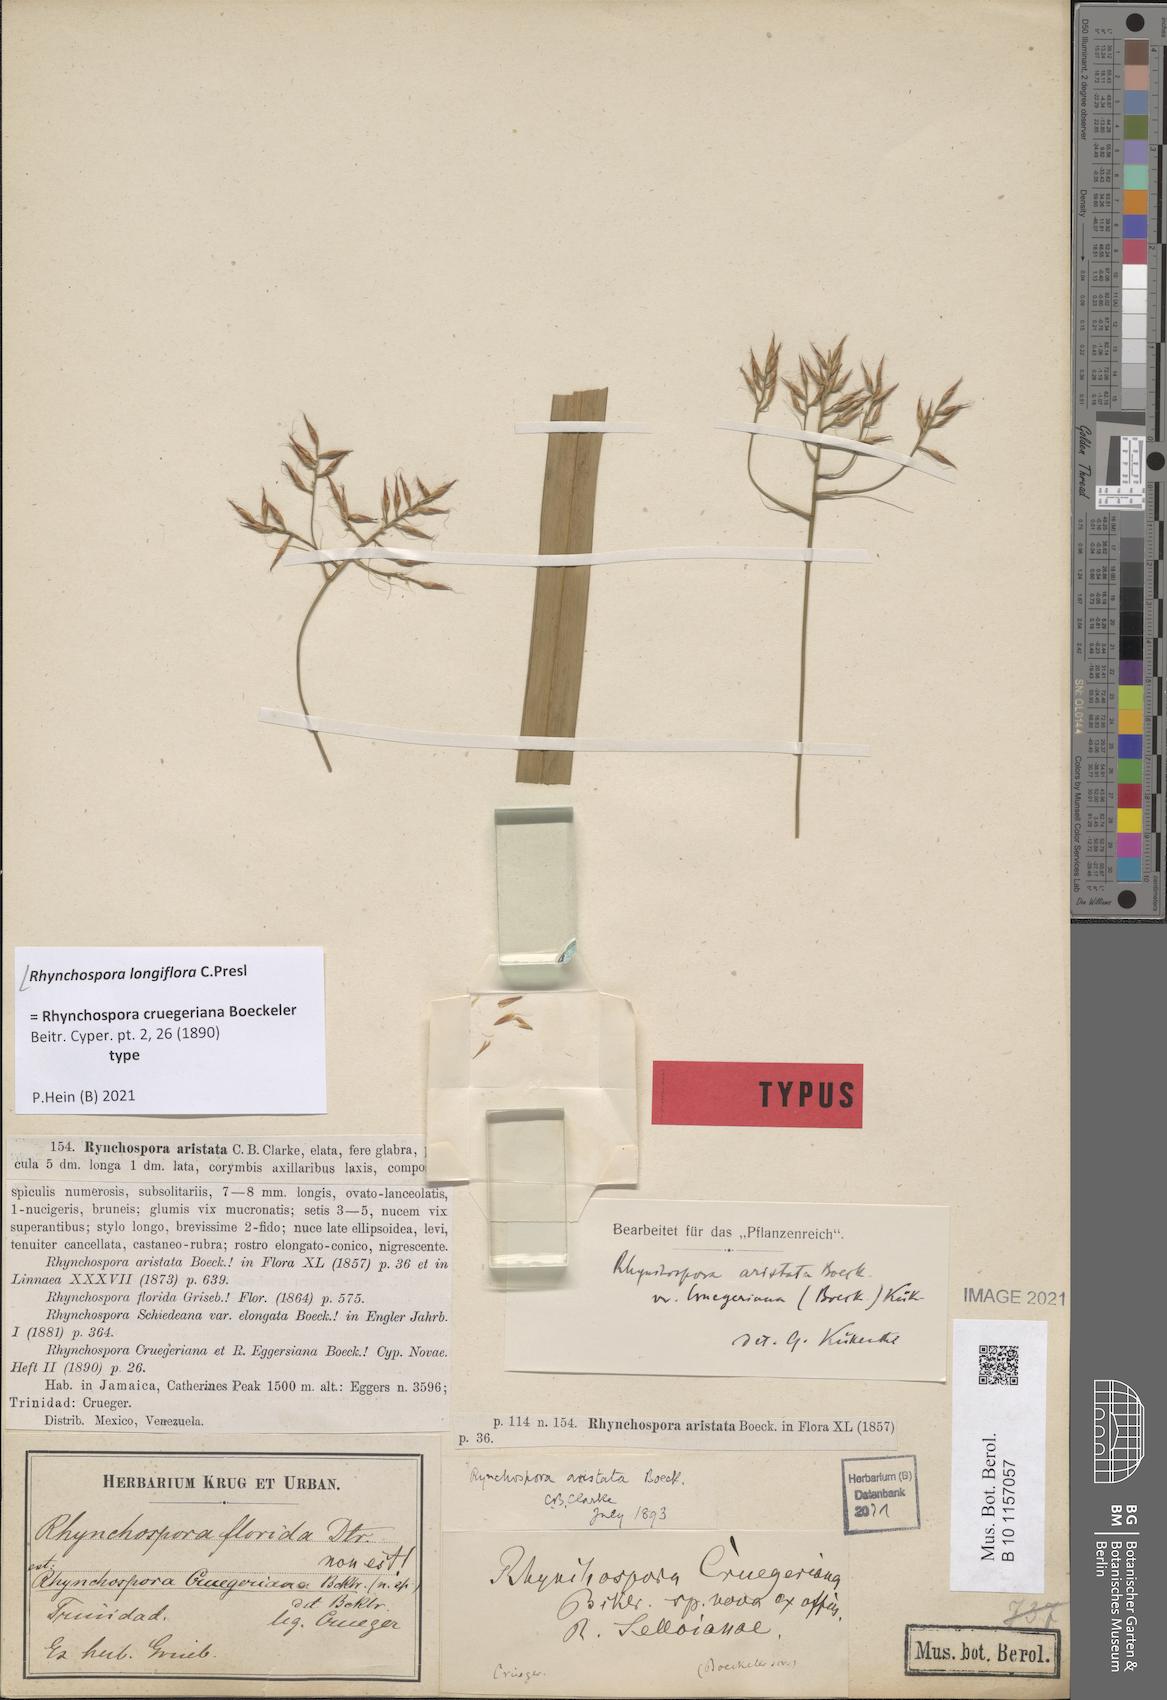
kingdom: Plantae
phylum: Tracheophyta
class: Liliopsida
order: Poales
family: Cyperaceae
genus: Rhynchospora
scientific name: Rhynchospora longiflora
